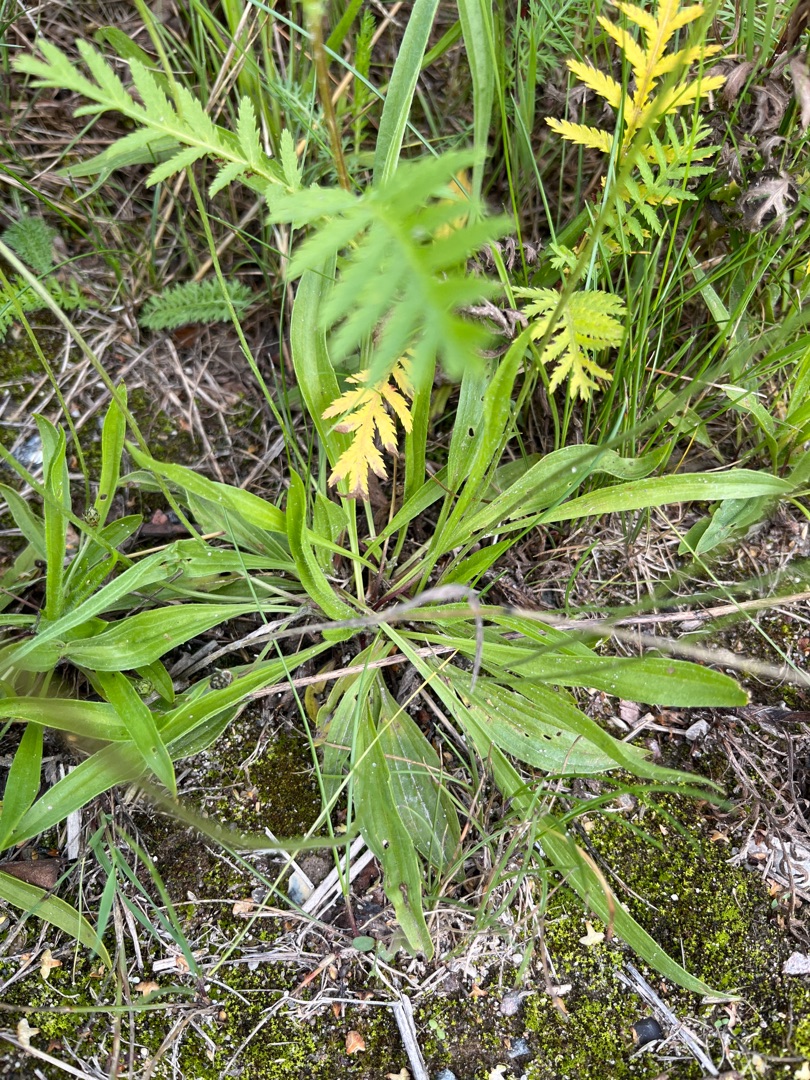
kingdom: Plantae
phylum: Tracheophyta
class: Magnoliopsida
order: Lamiales
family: Plantaginaceae
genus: Plantago
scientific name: Plantago lanceolata
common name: Lancet-vejbred
